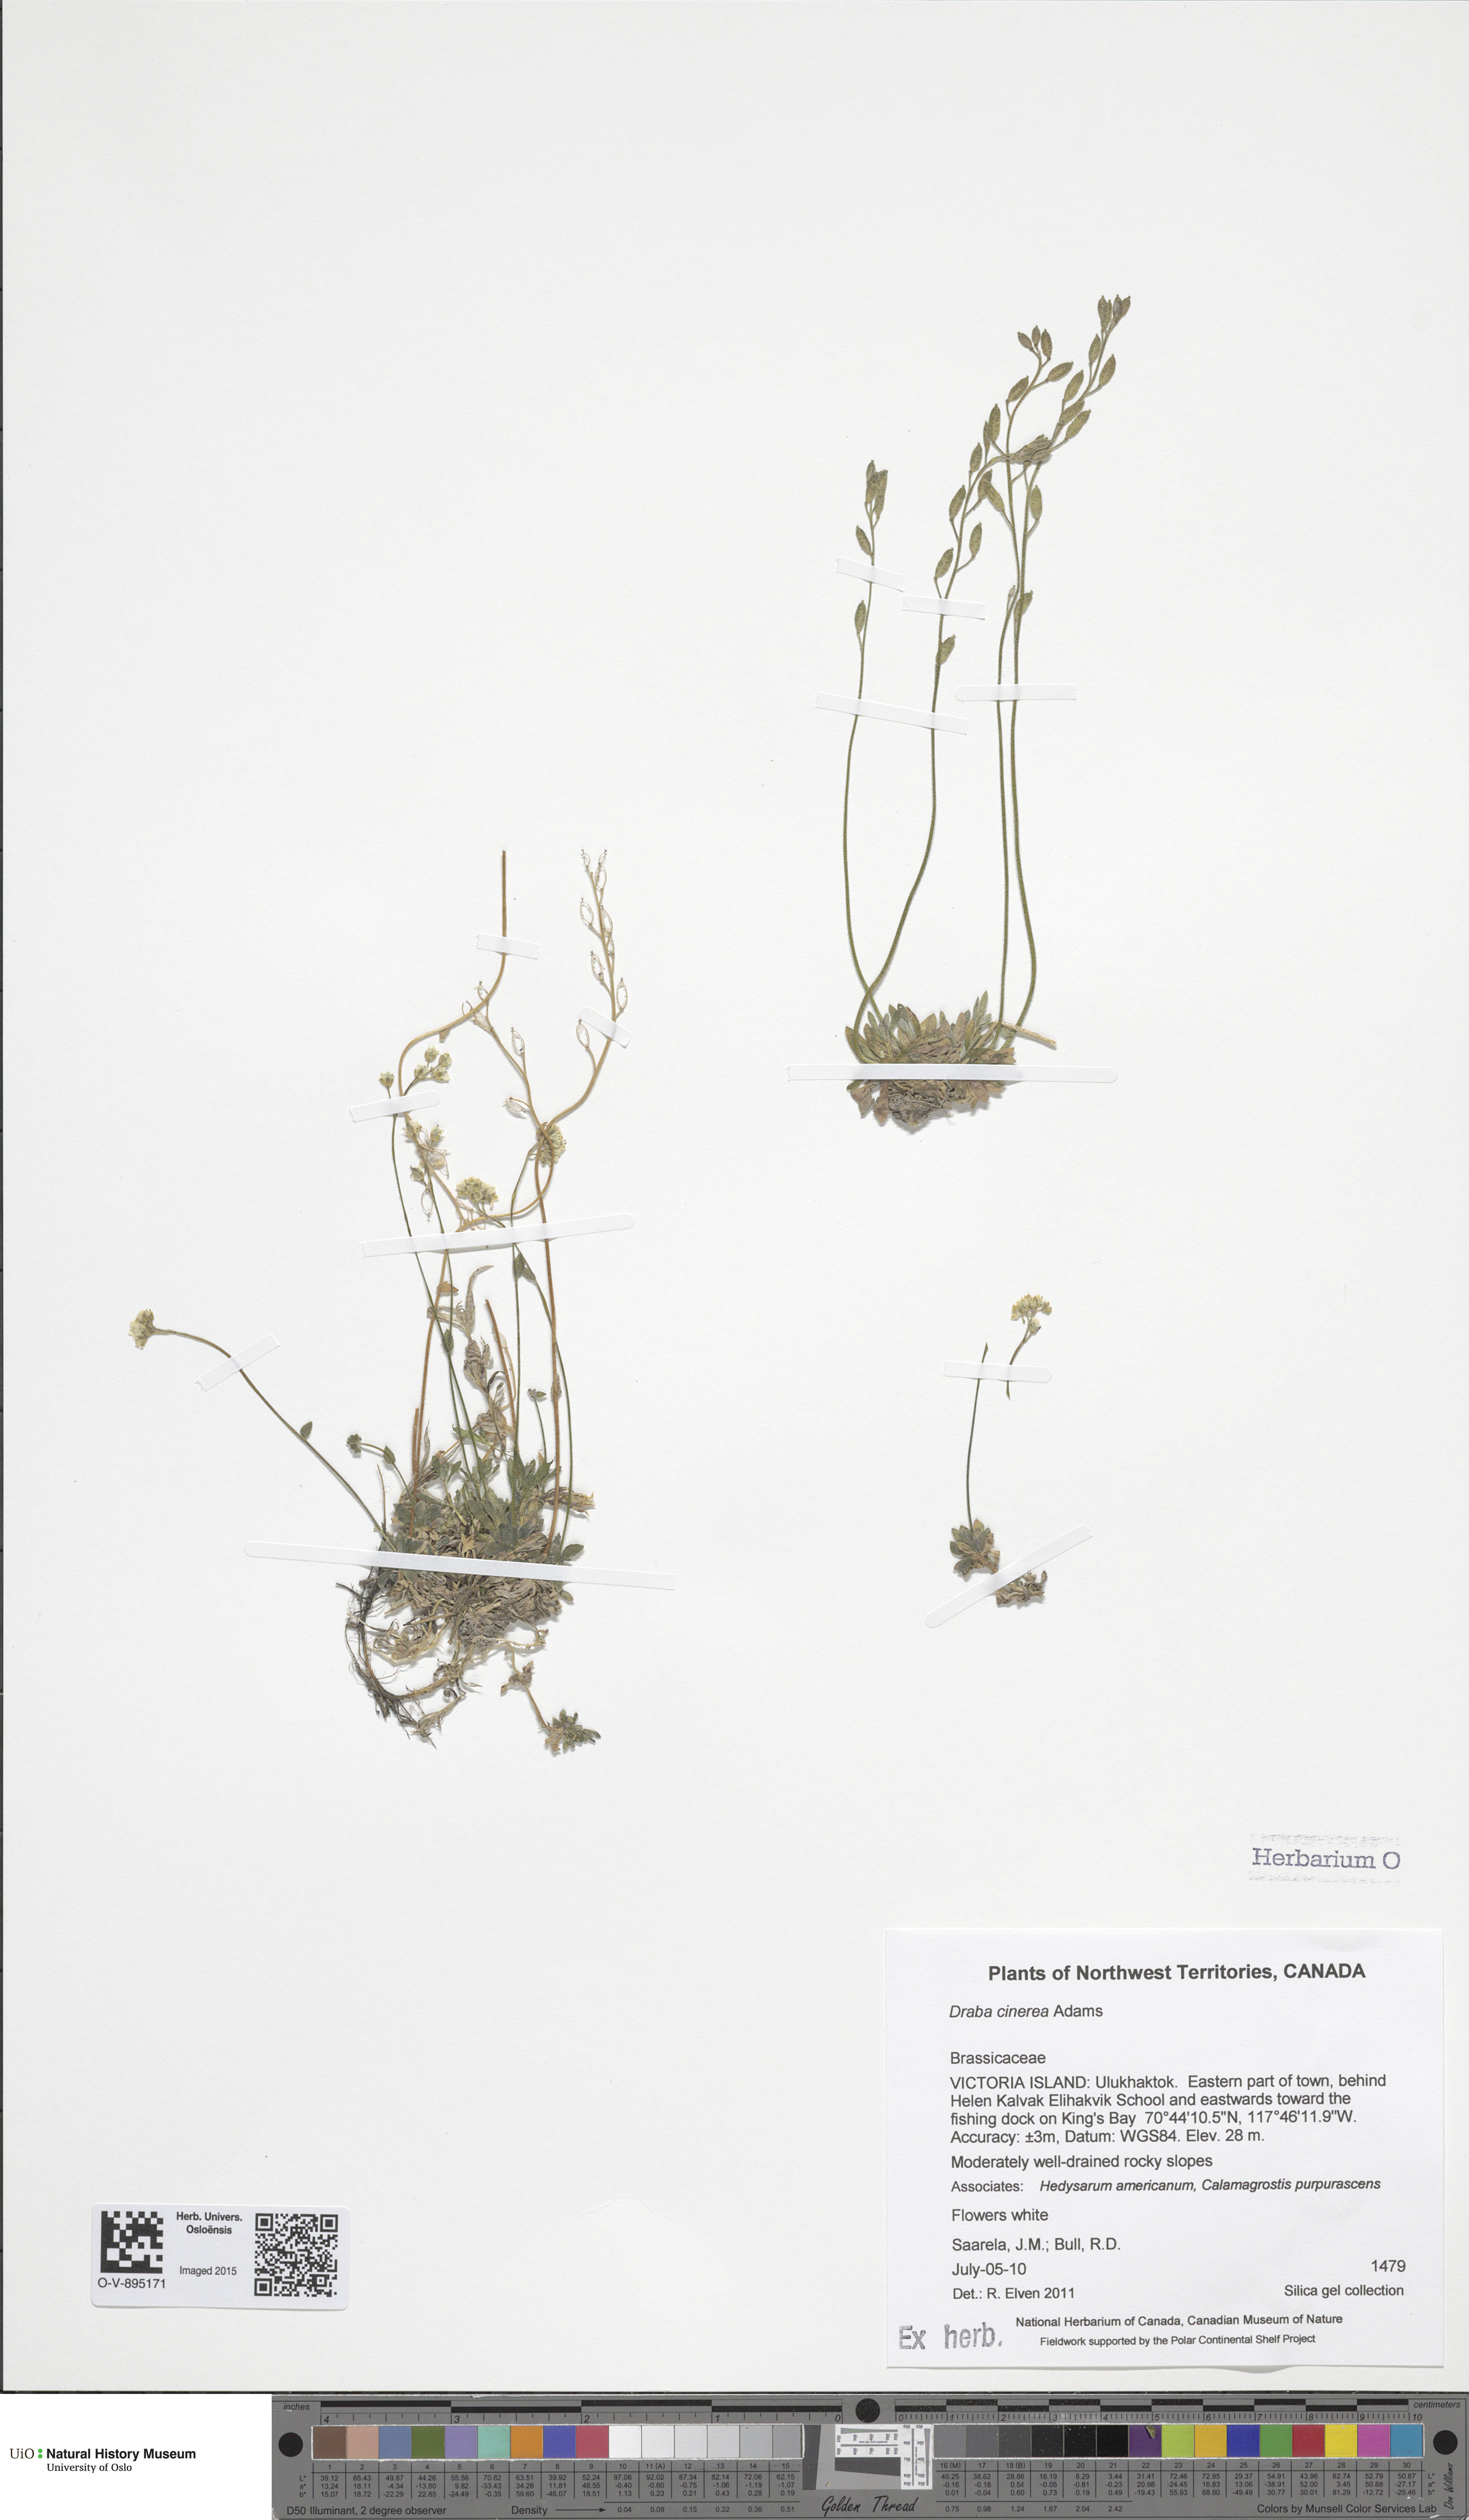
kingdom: Plantae
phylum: Tracheophyta
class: Magnoliopsida
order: Brassicales
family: Brassicaceae
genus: Draba
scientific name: Draba cinerea
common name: Ash-coloured whitlow-grass
